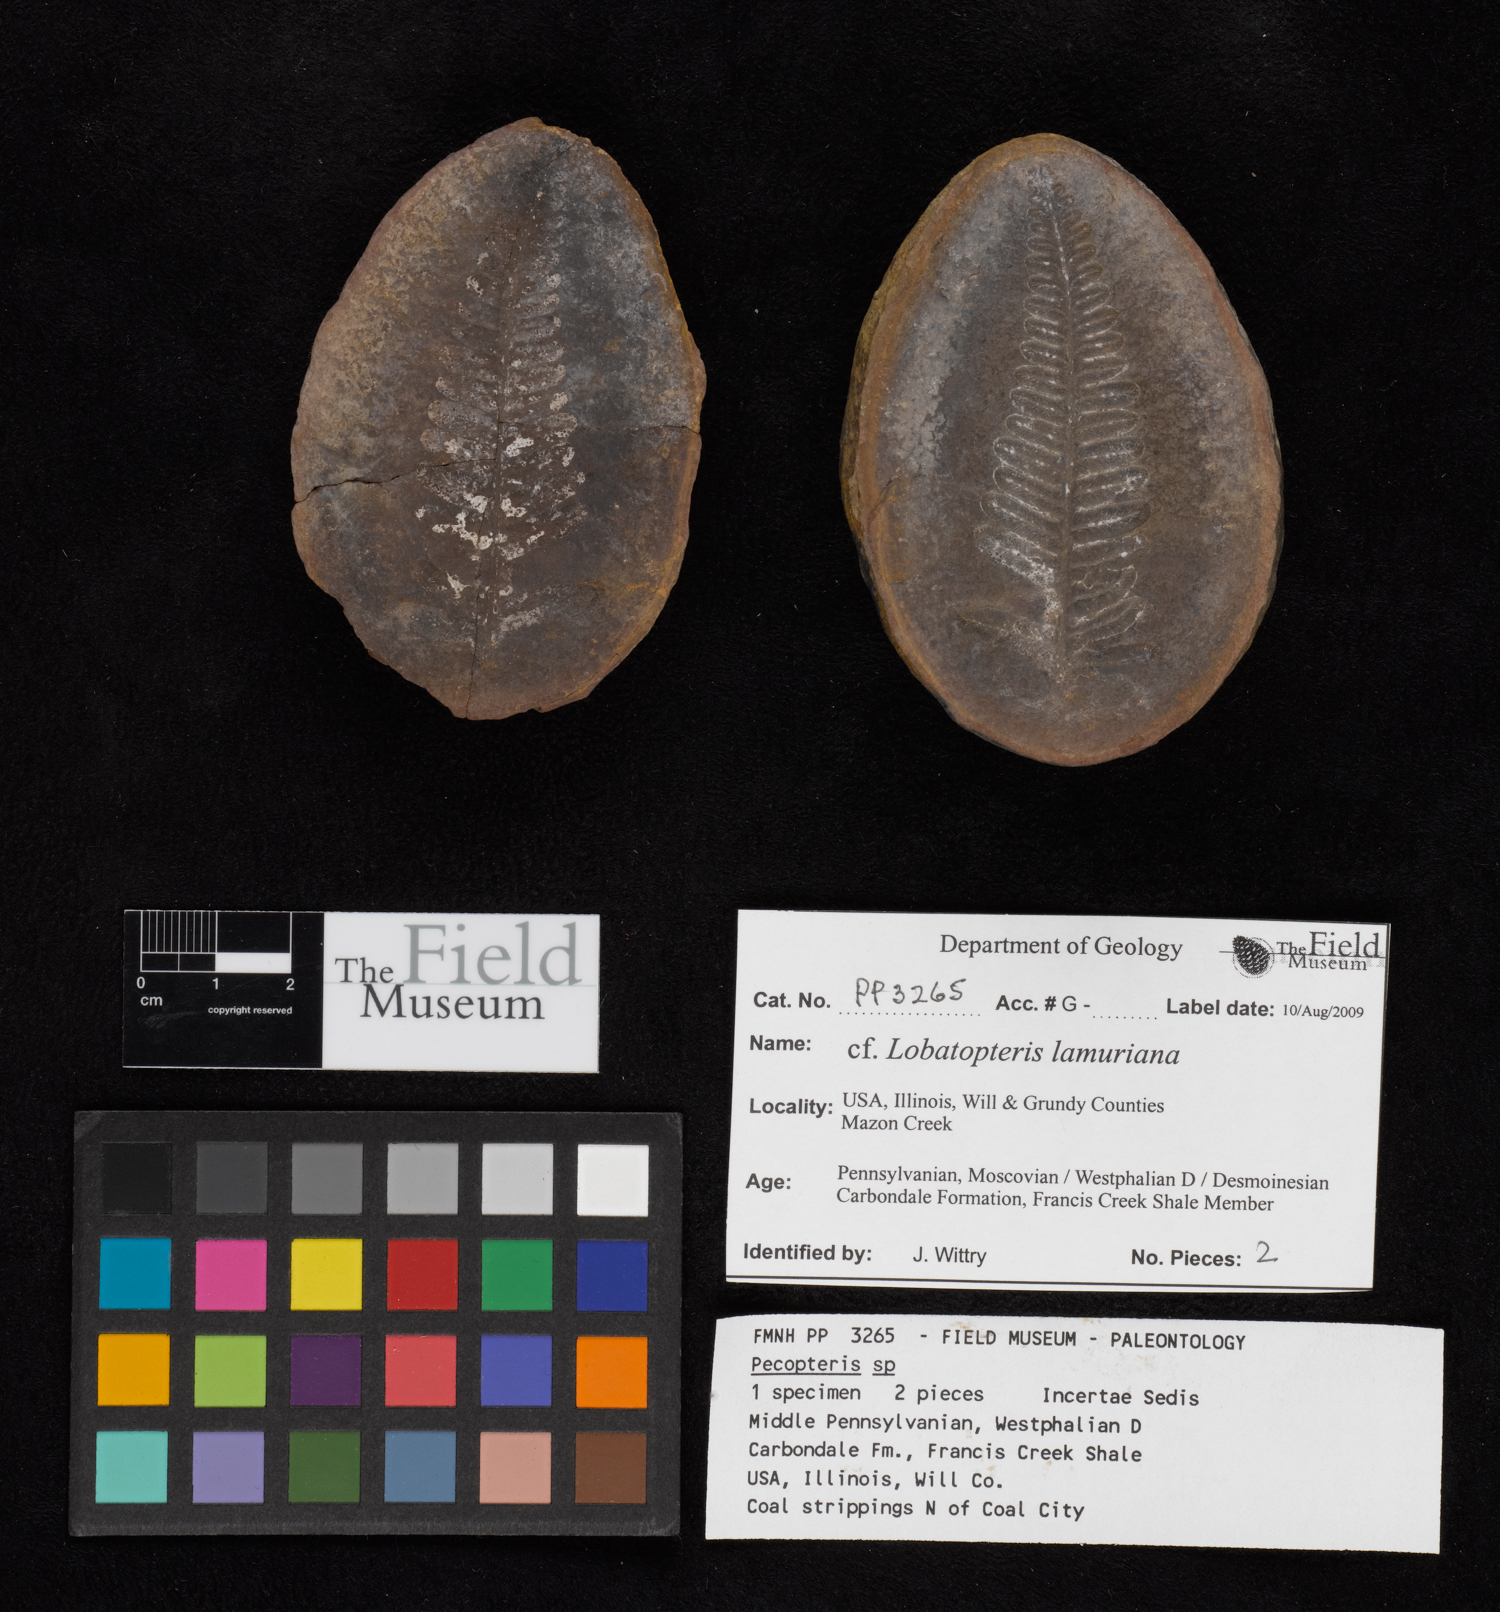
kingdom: Plantae
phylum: Tracheophyta
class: Polypodiopsida
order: Marattiales
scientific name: Marattiales
